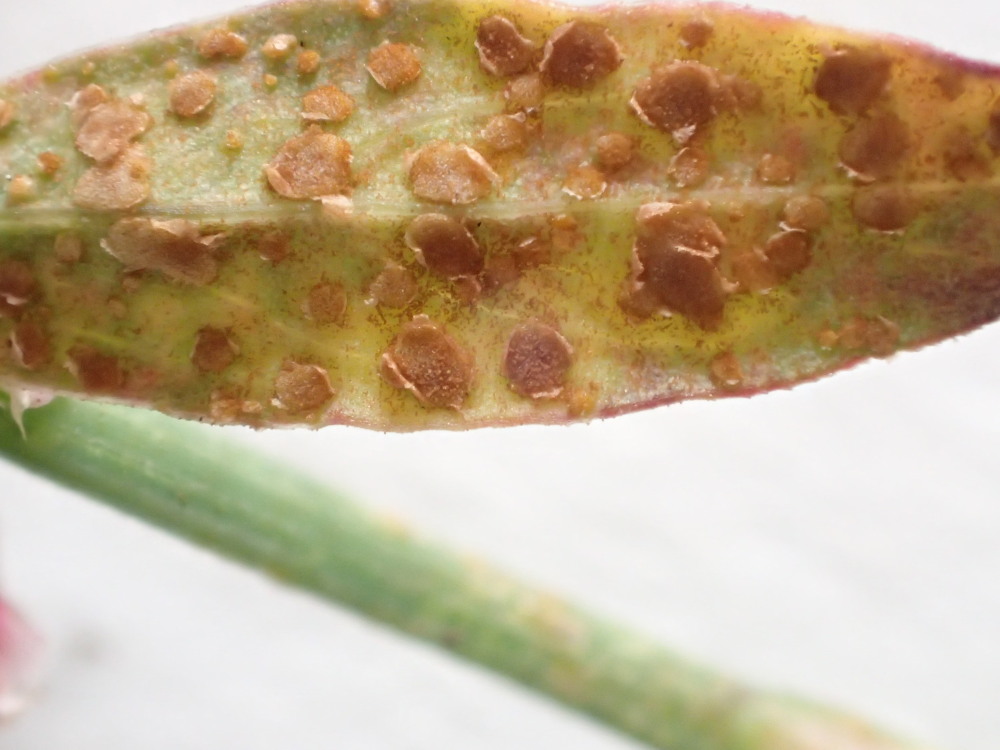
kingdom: Fungi
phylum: Basidiomycota
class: Pucciniomycetes
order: Pucciniales
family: Pucciniaceae
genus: Uromyces
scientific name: Uromyces polygoni-avicularis
